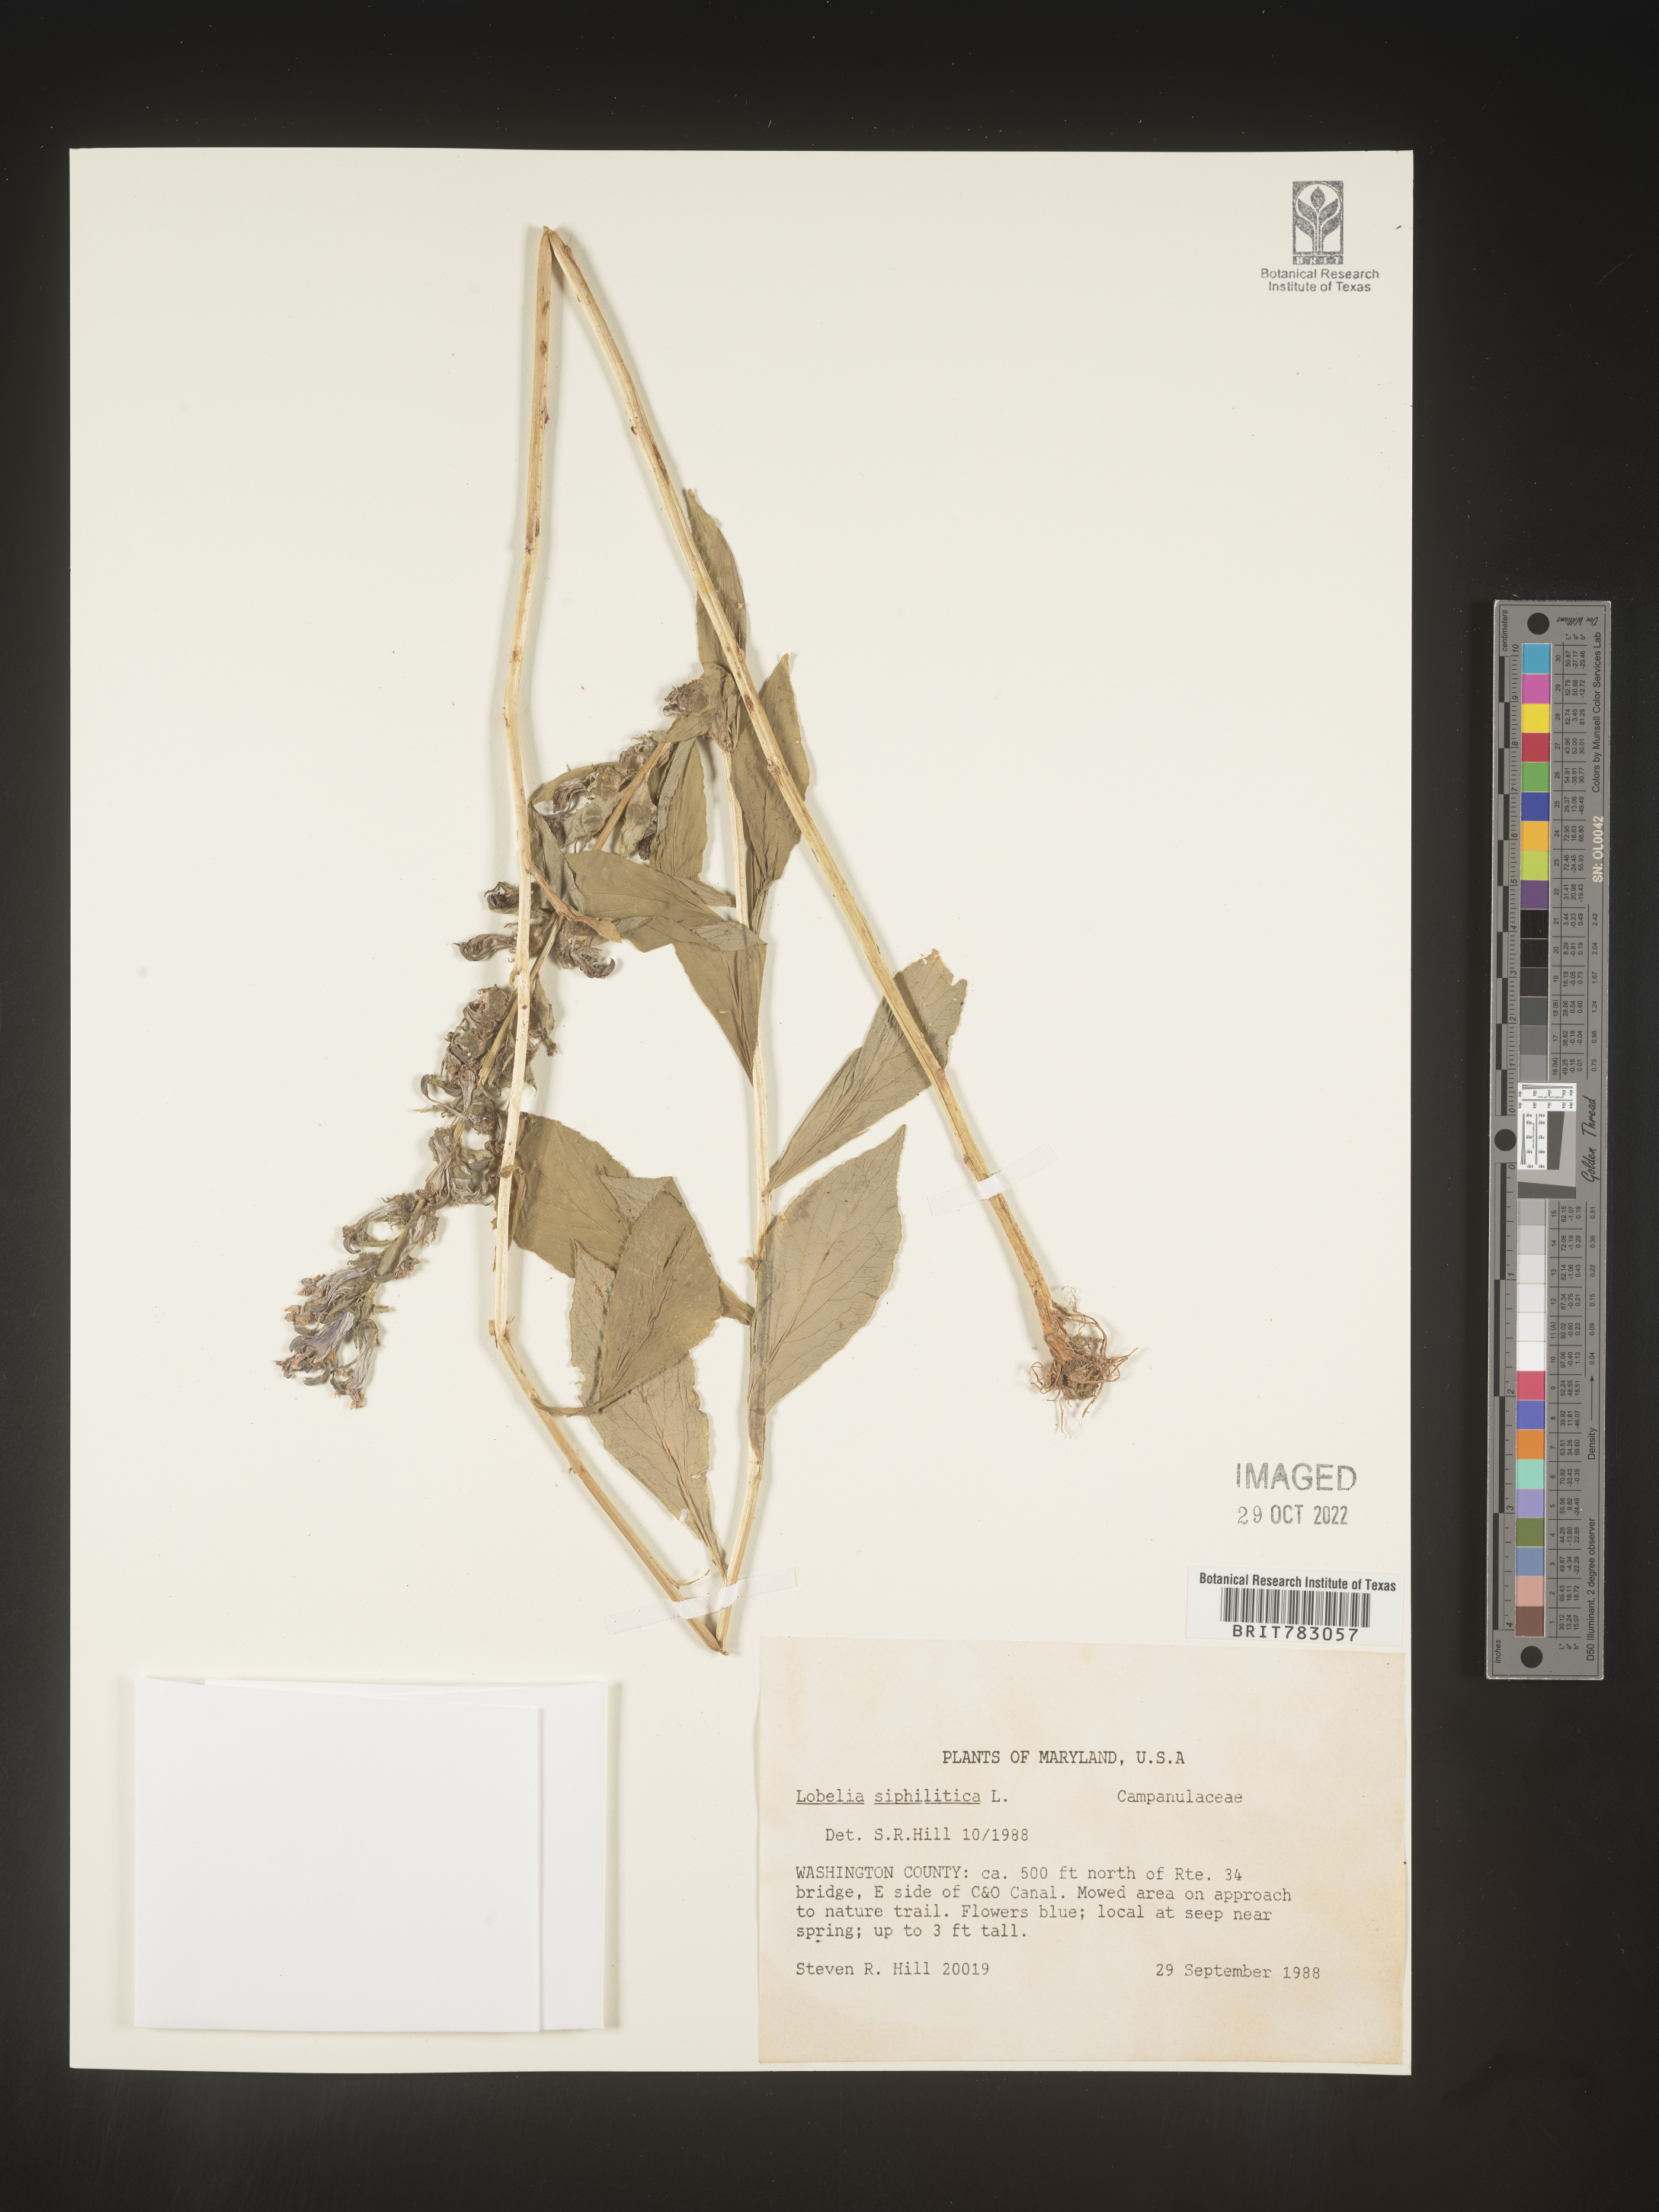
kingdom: Plantae
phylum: Tracheophyta
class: Magnoliopsida
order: Asterales
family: Campanulaceae
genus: Lobelia
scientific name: Lobelia siphilitica
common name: Great lobelia
